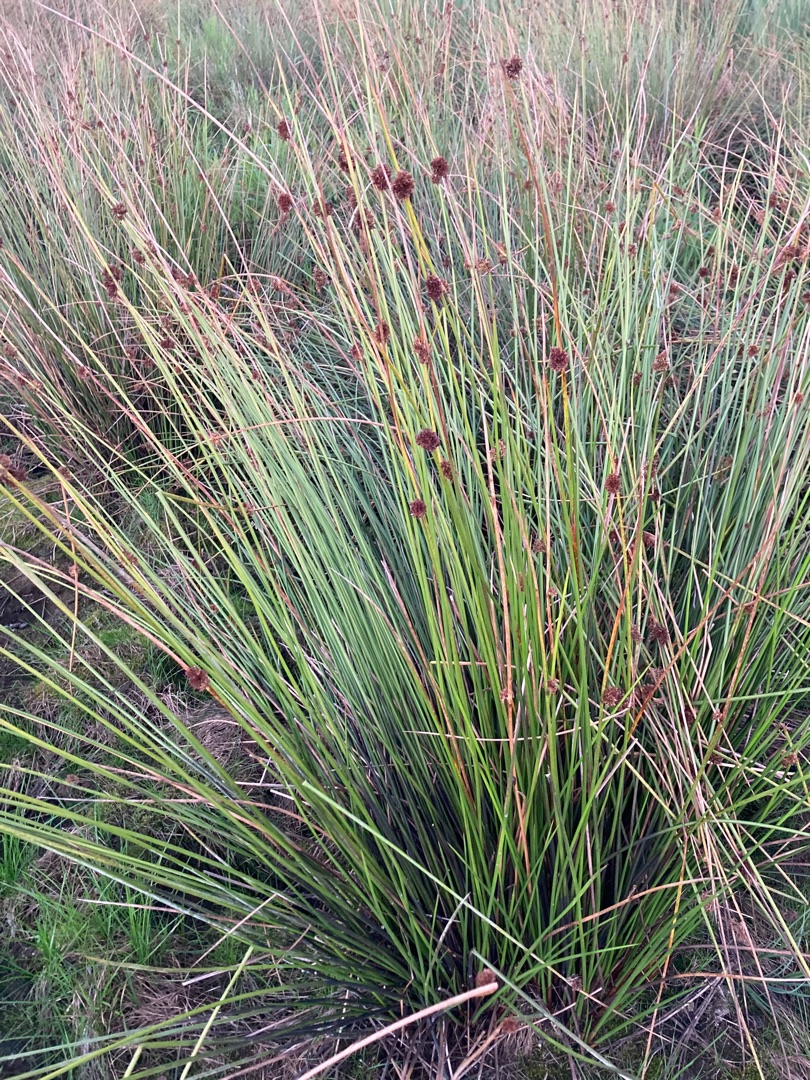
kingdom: Plantae
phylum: Tracheophyta
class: Liliopsida
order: Poales
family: Juncaceae
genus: Juncus
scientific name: Juncus effusus
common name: Lyse-siv
